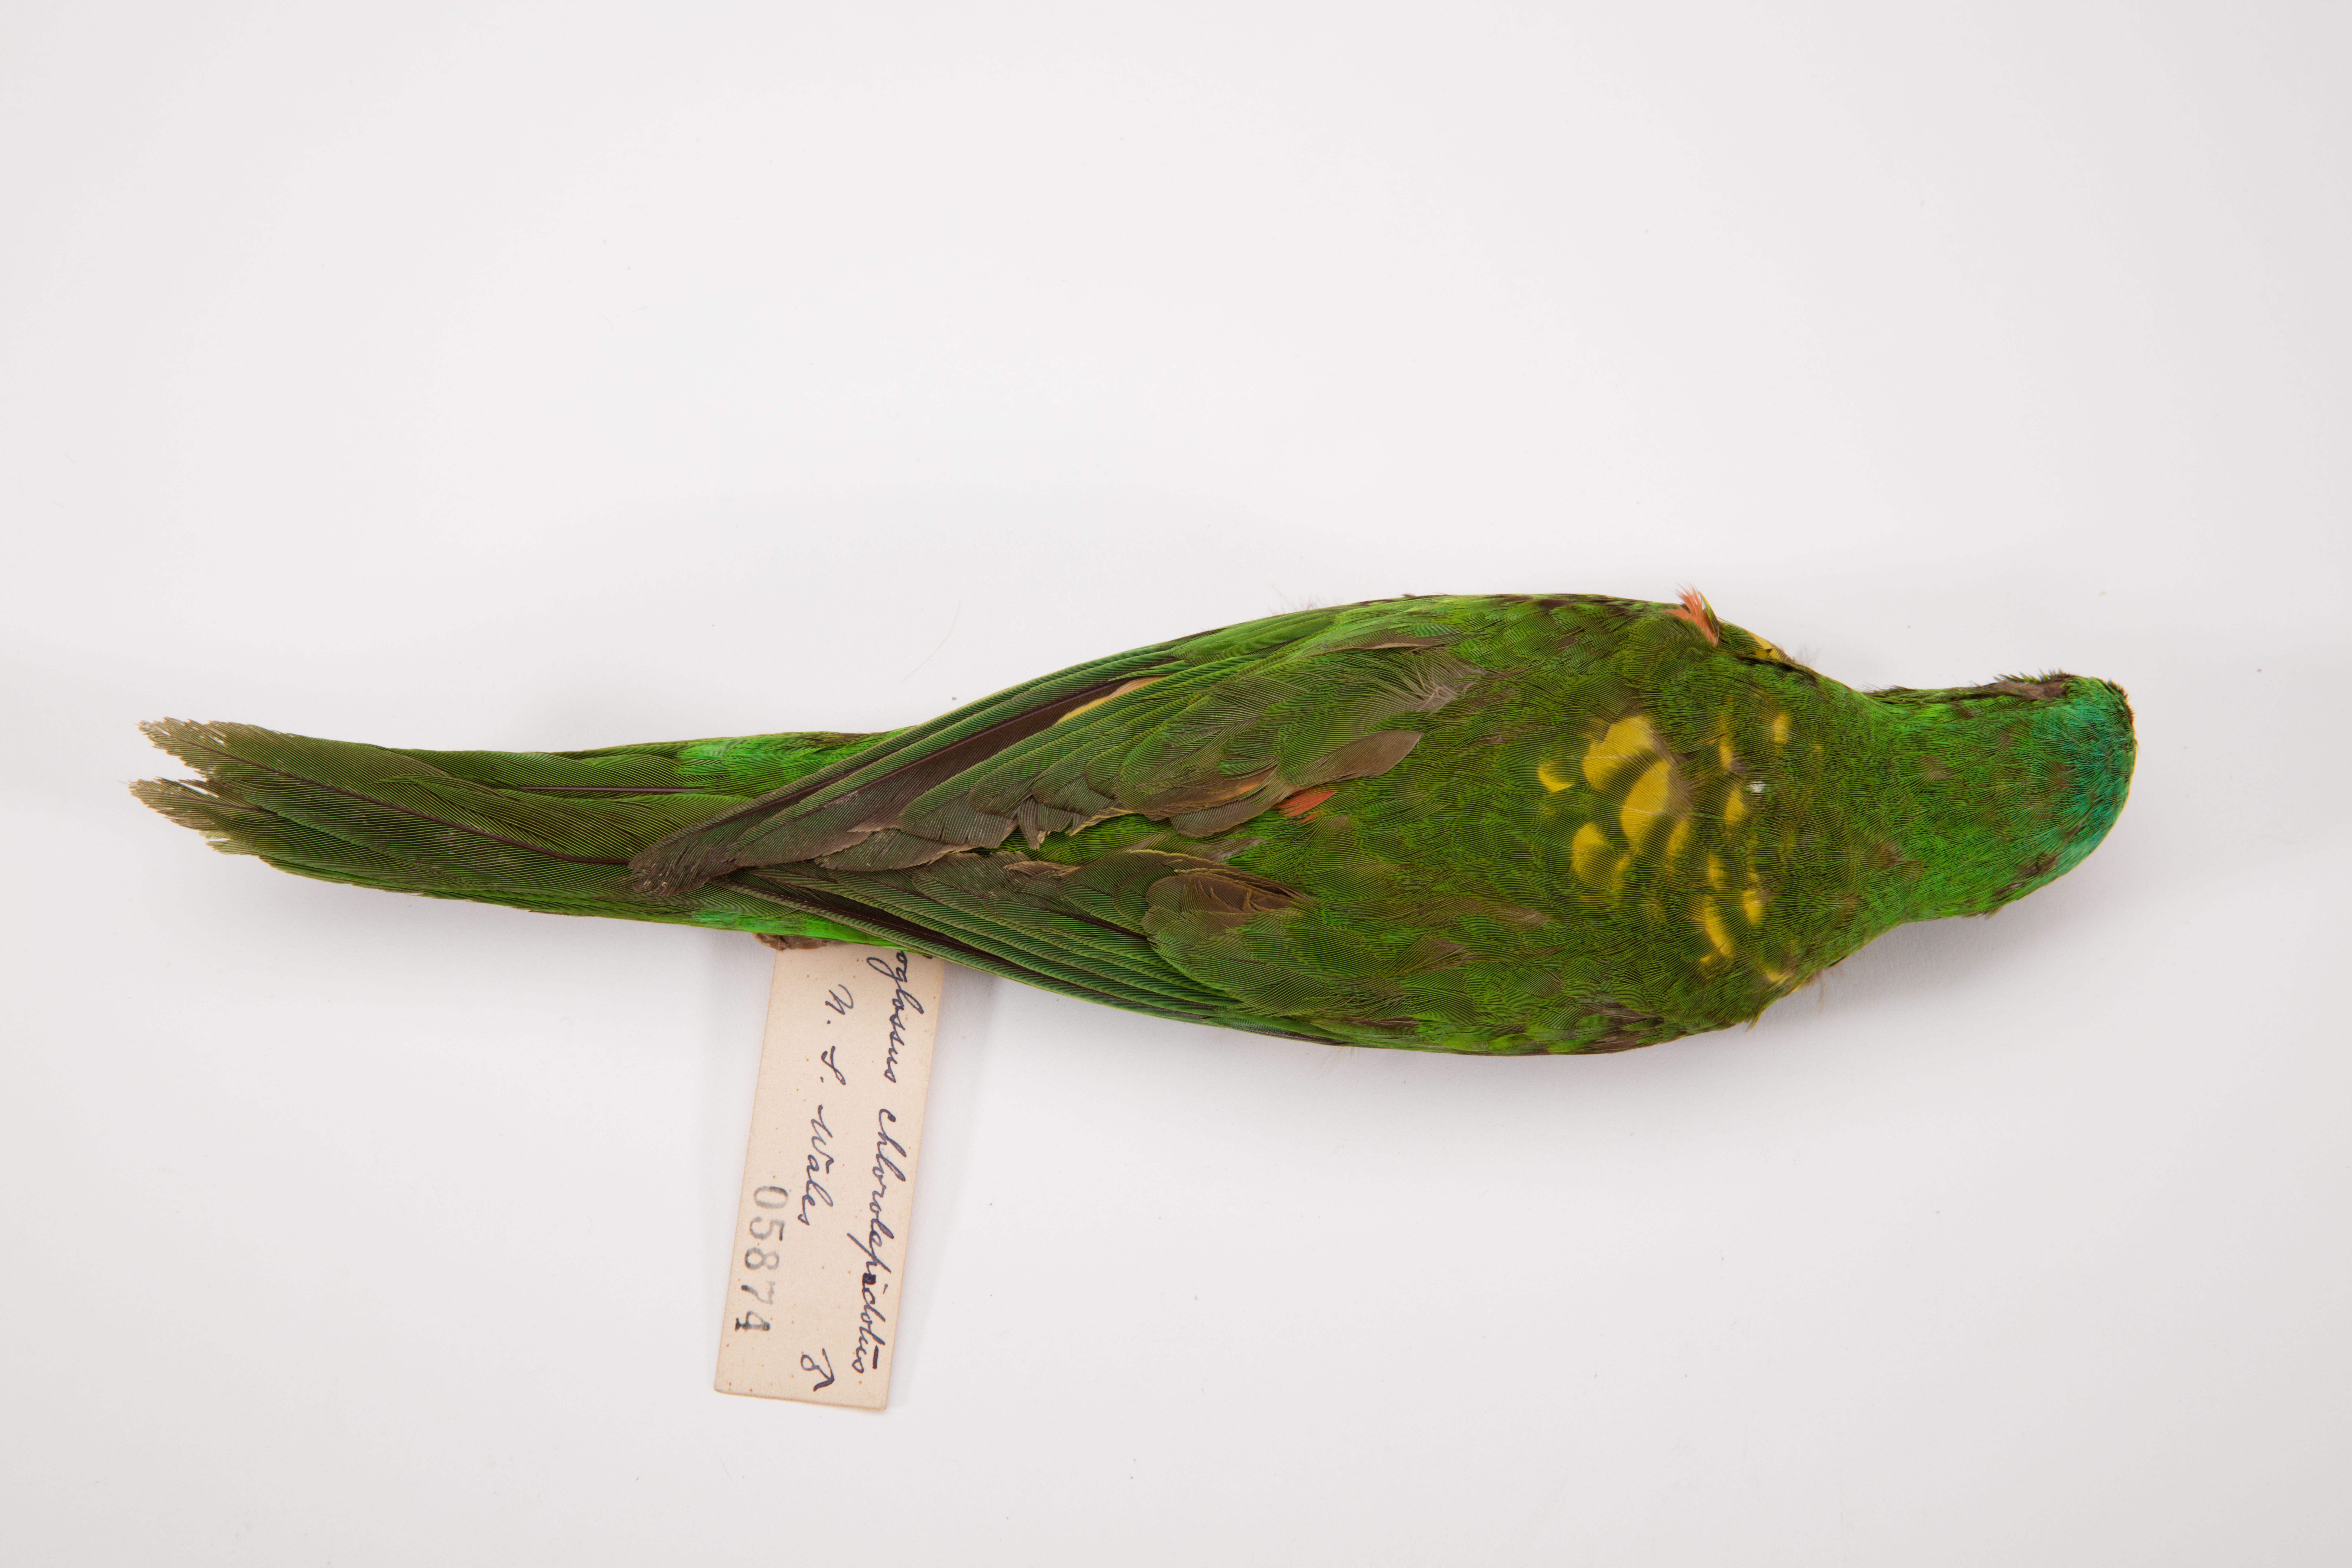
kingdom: Animalia
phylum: Chordata
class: Aves
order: Psittaciformes
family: Psittacidae
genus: Trichoglossus
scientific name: Trichoglossus chlorolepidotus
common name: Scaly-breasted lorikeet
